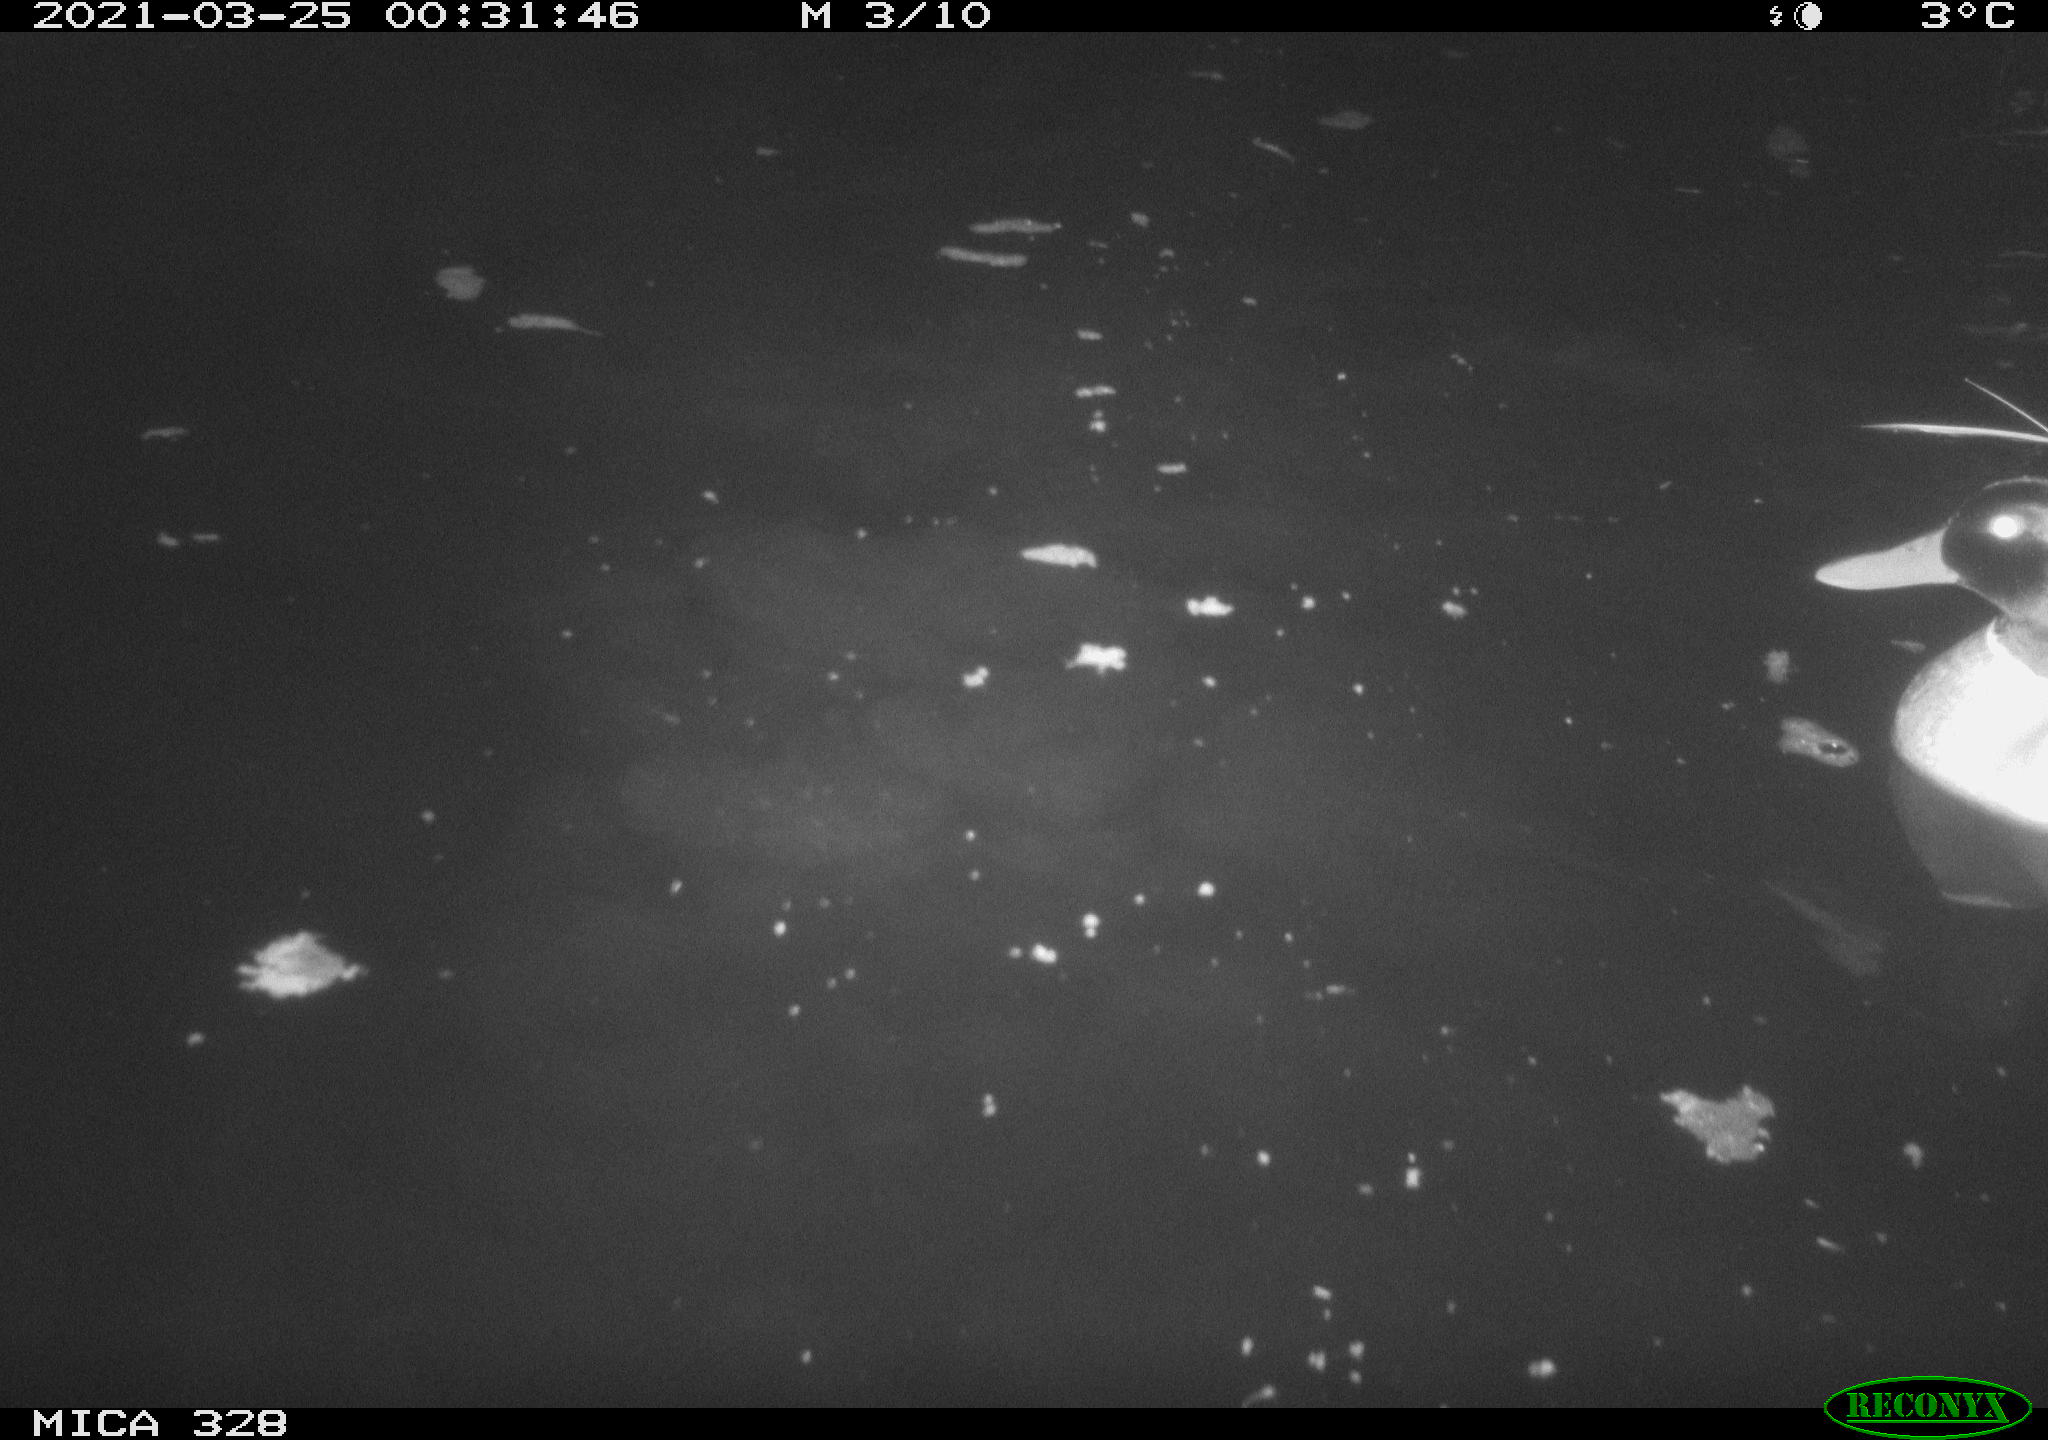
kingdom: Animalia
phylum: Chordata
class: Aves
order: Anseriformes
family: Anatidae
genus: Anas
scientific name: Anas platyrhynchos
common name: Mallard
